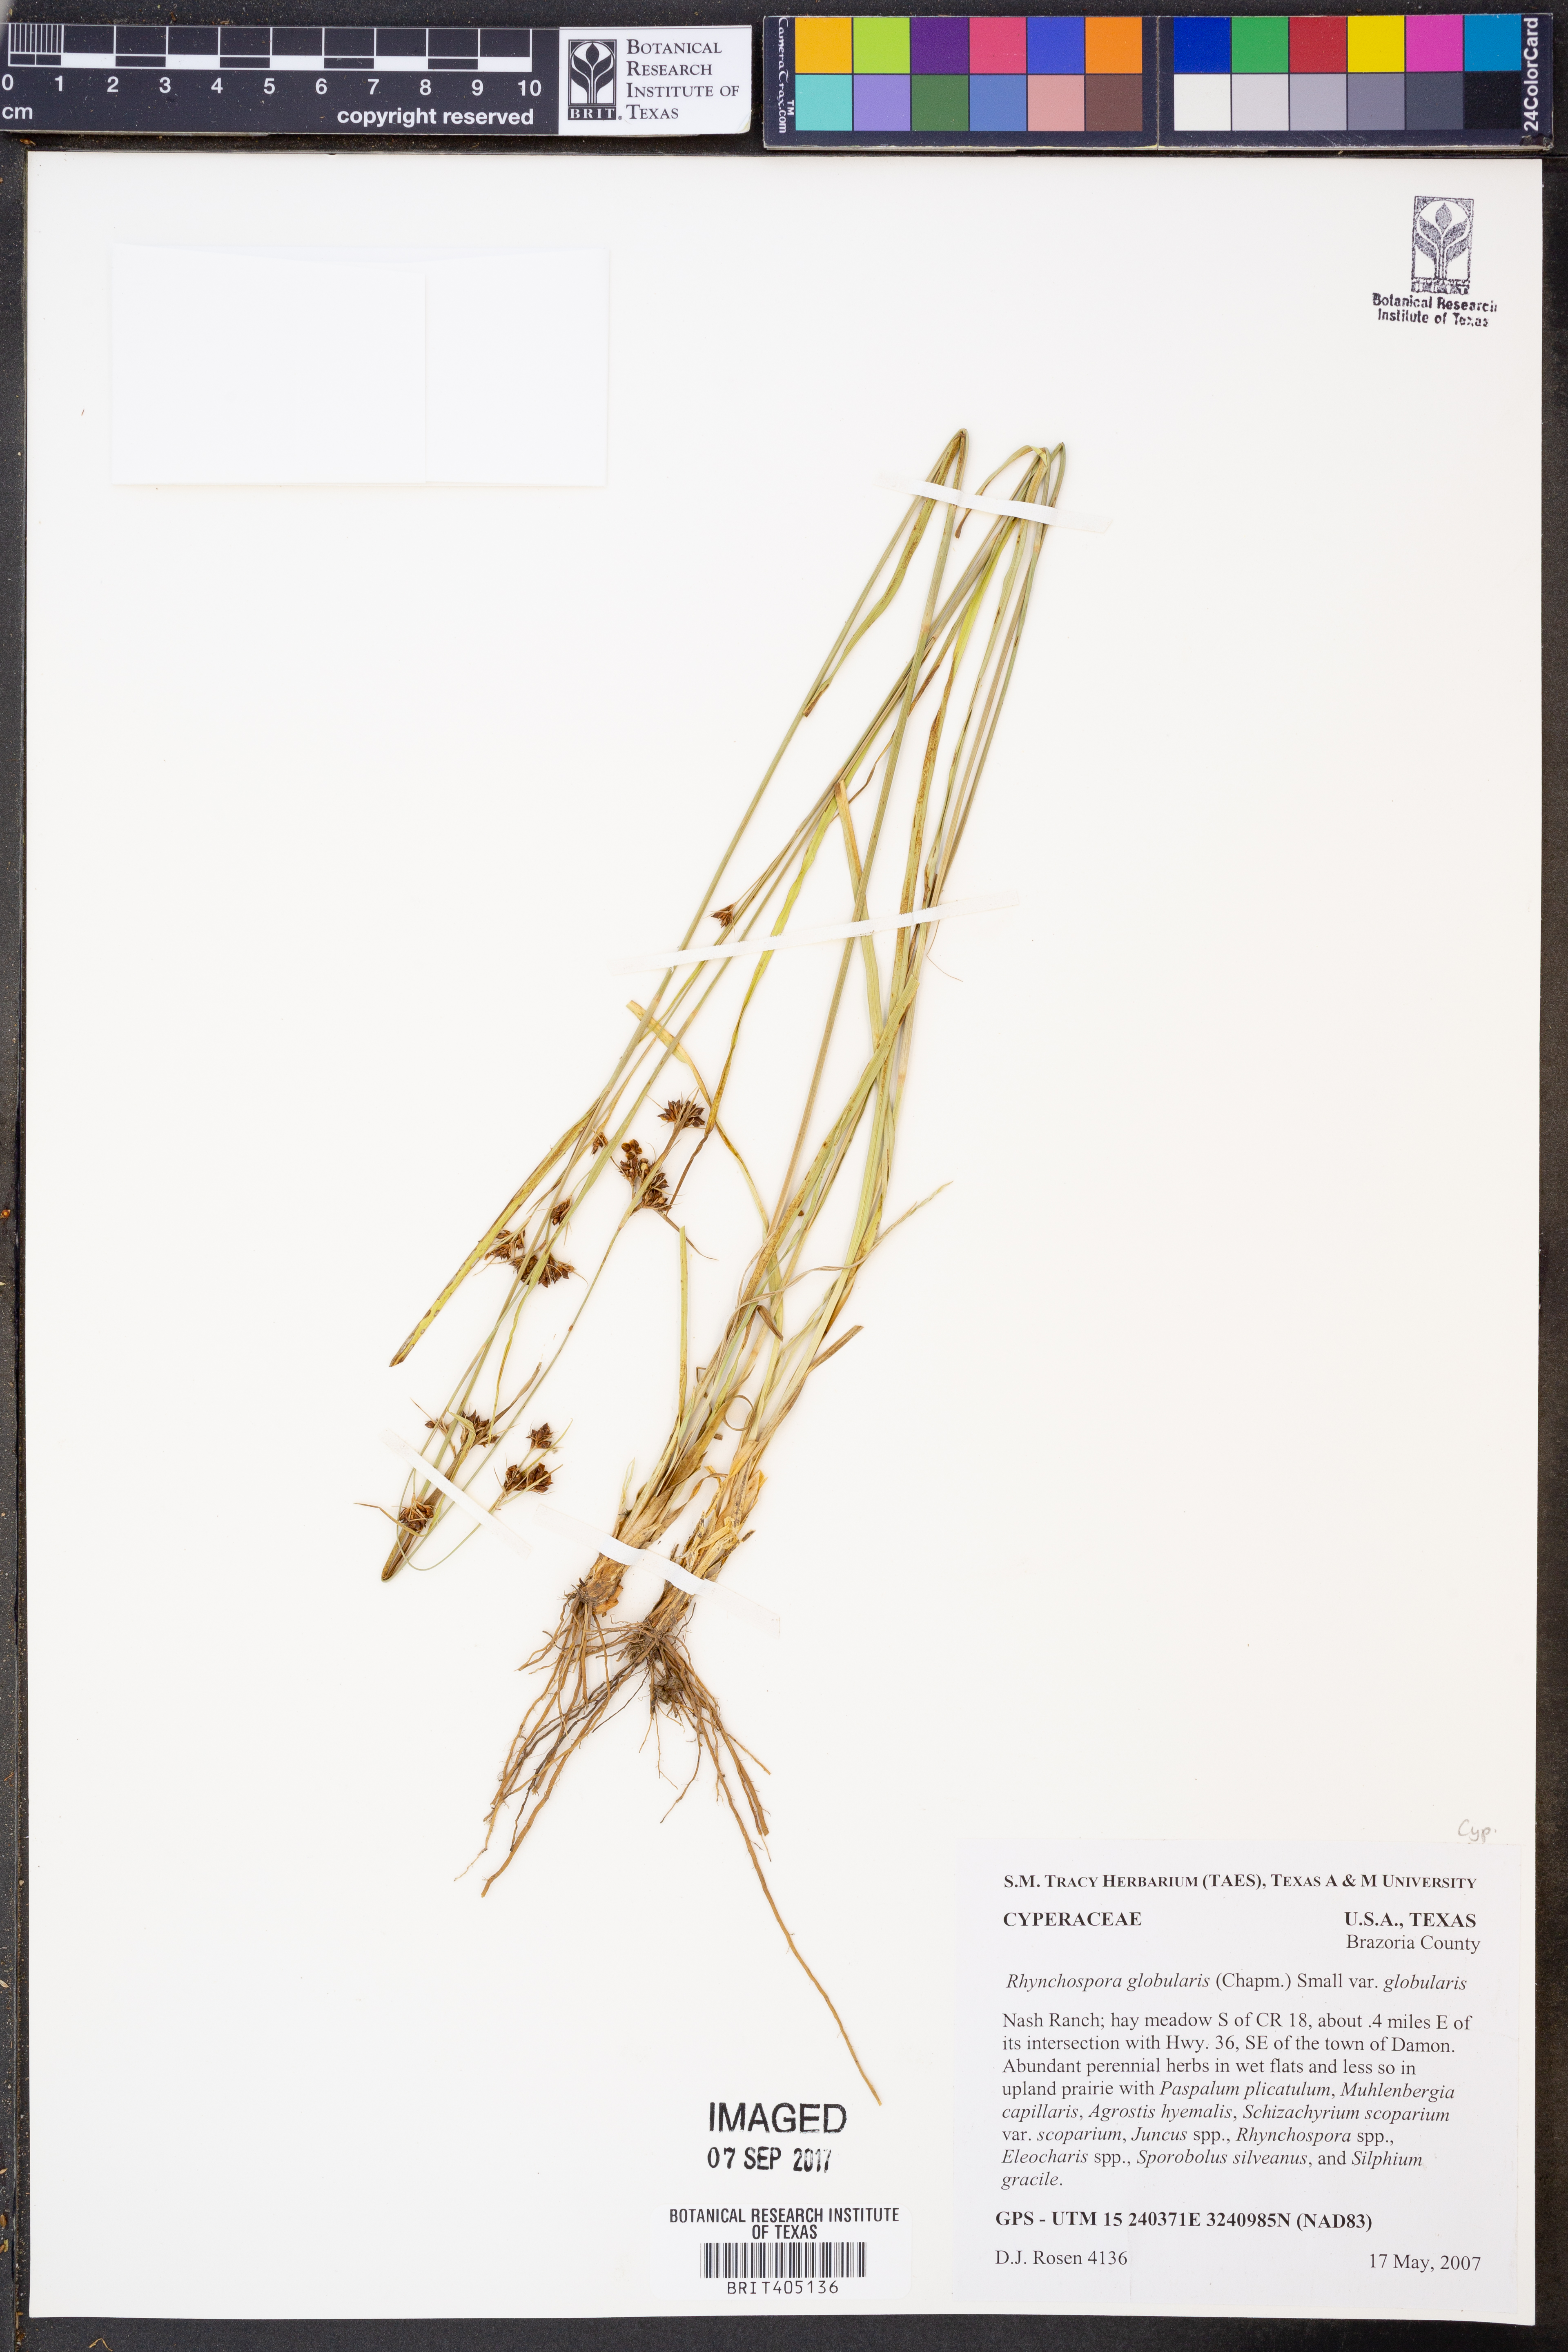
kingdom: Plantae
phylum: Tracheophyta
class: Liliopsida
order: Poales
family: Cyperaceae
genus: Rhynchospora
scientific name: Rhynchospora globularis
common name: Globe beaksedge
